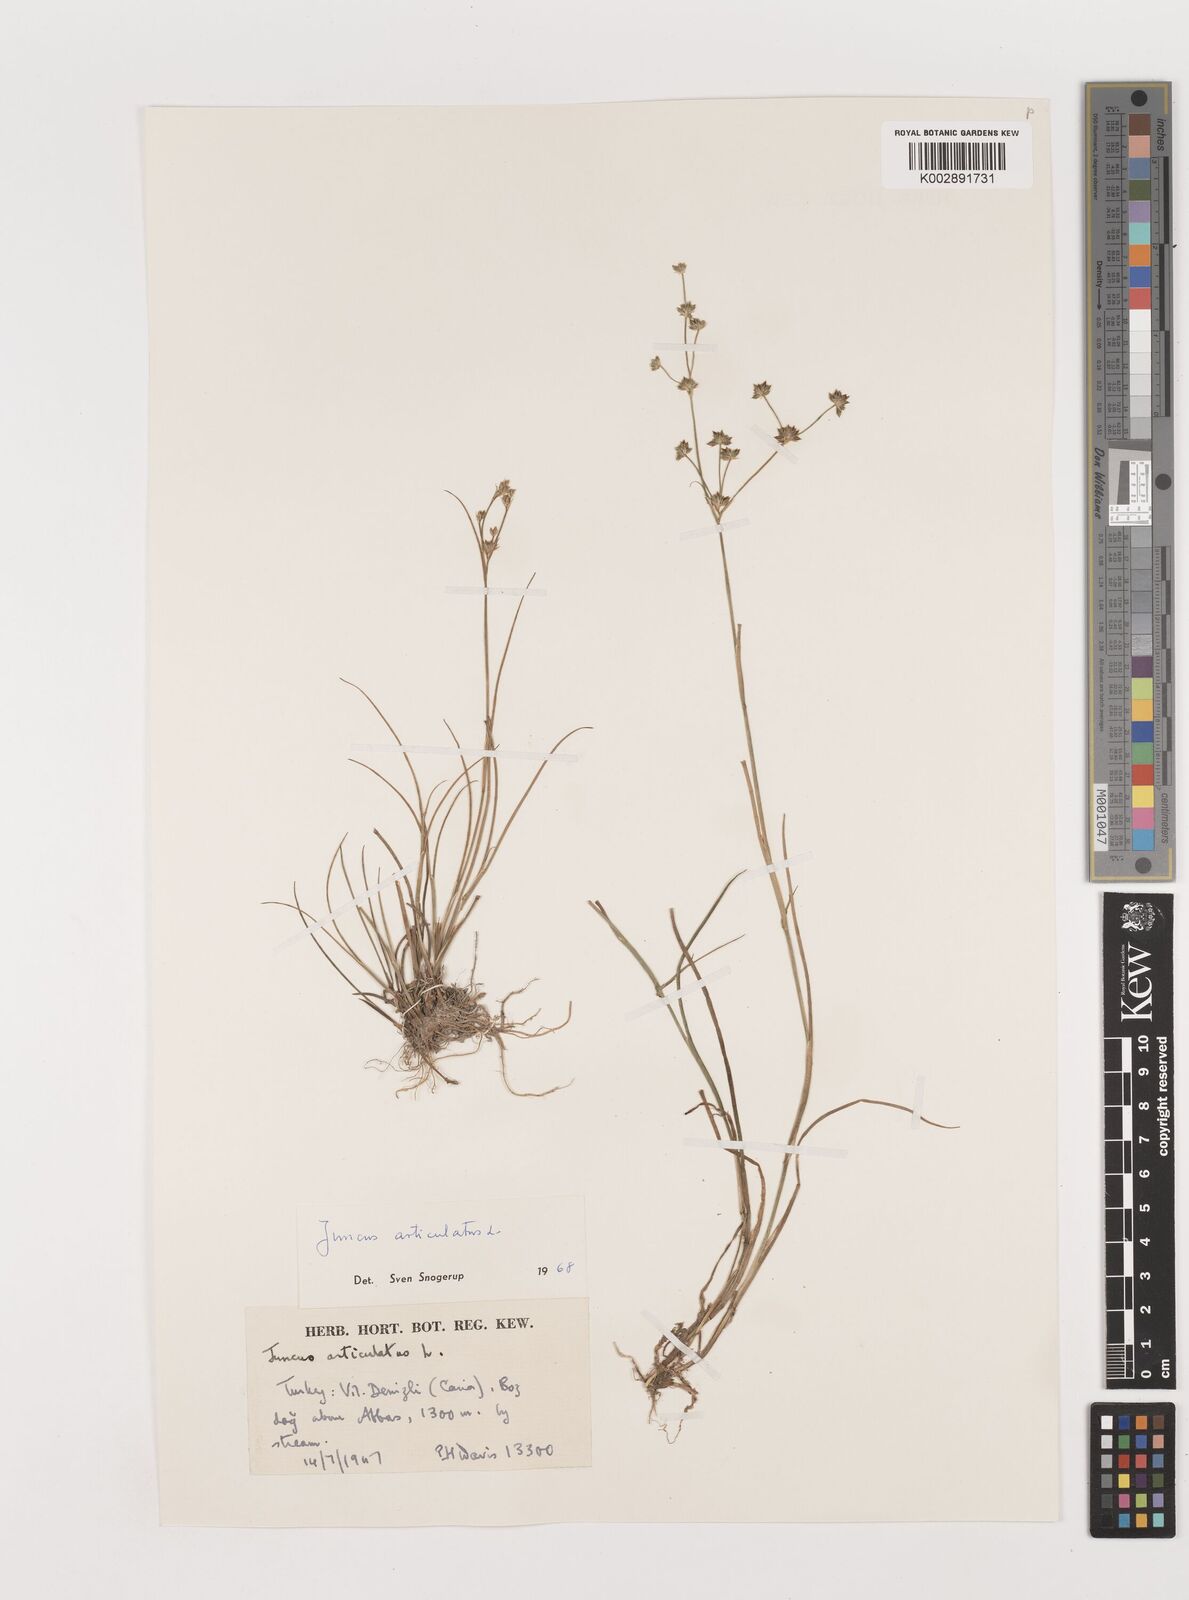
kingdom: Plantae
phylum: Tracheophyta
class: Liliopsida
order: Poales
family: Juncaceae
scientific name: Juncaceae
